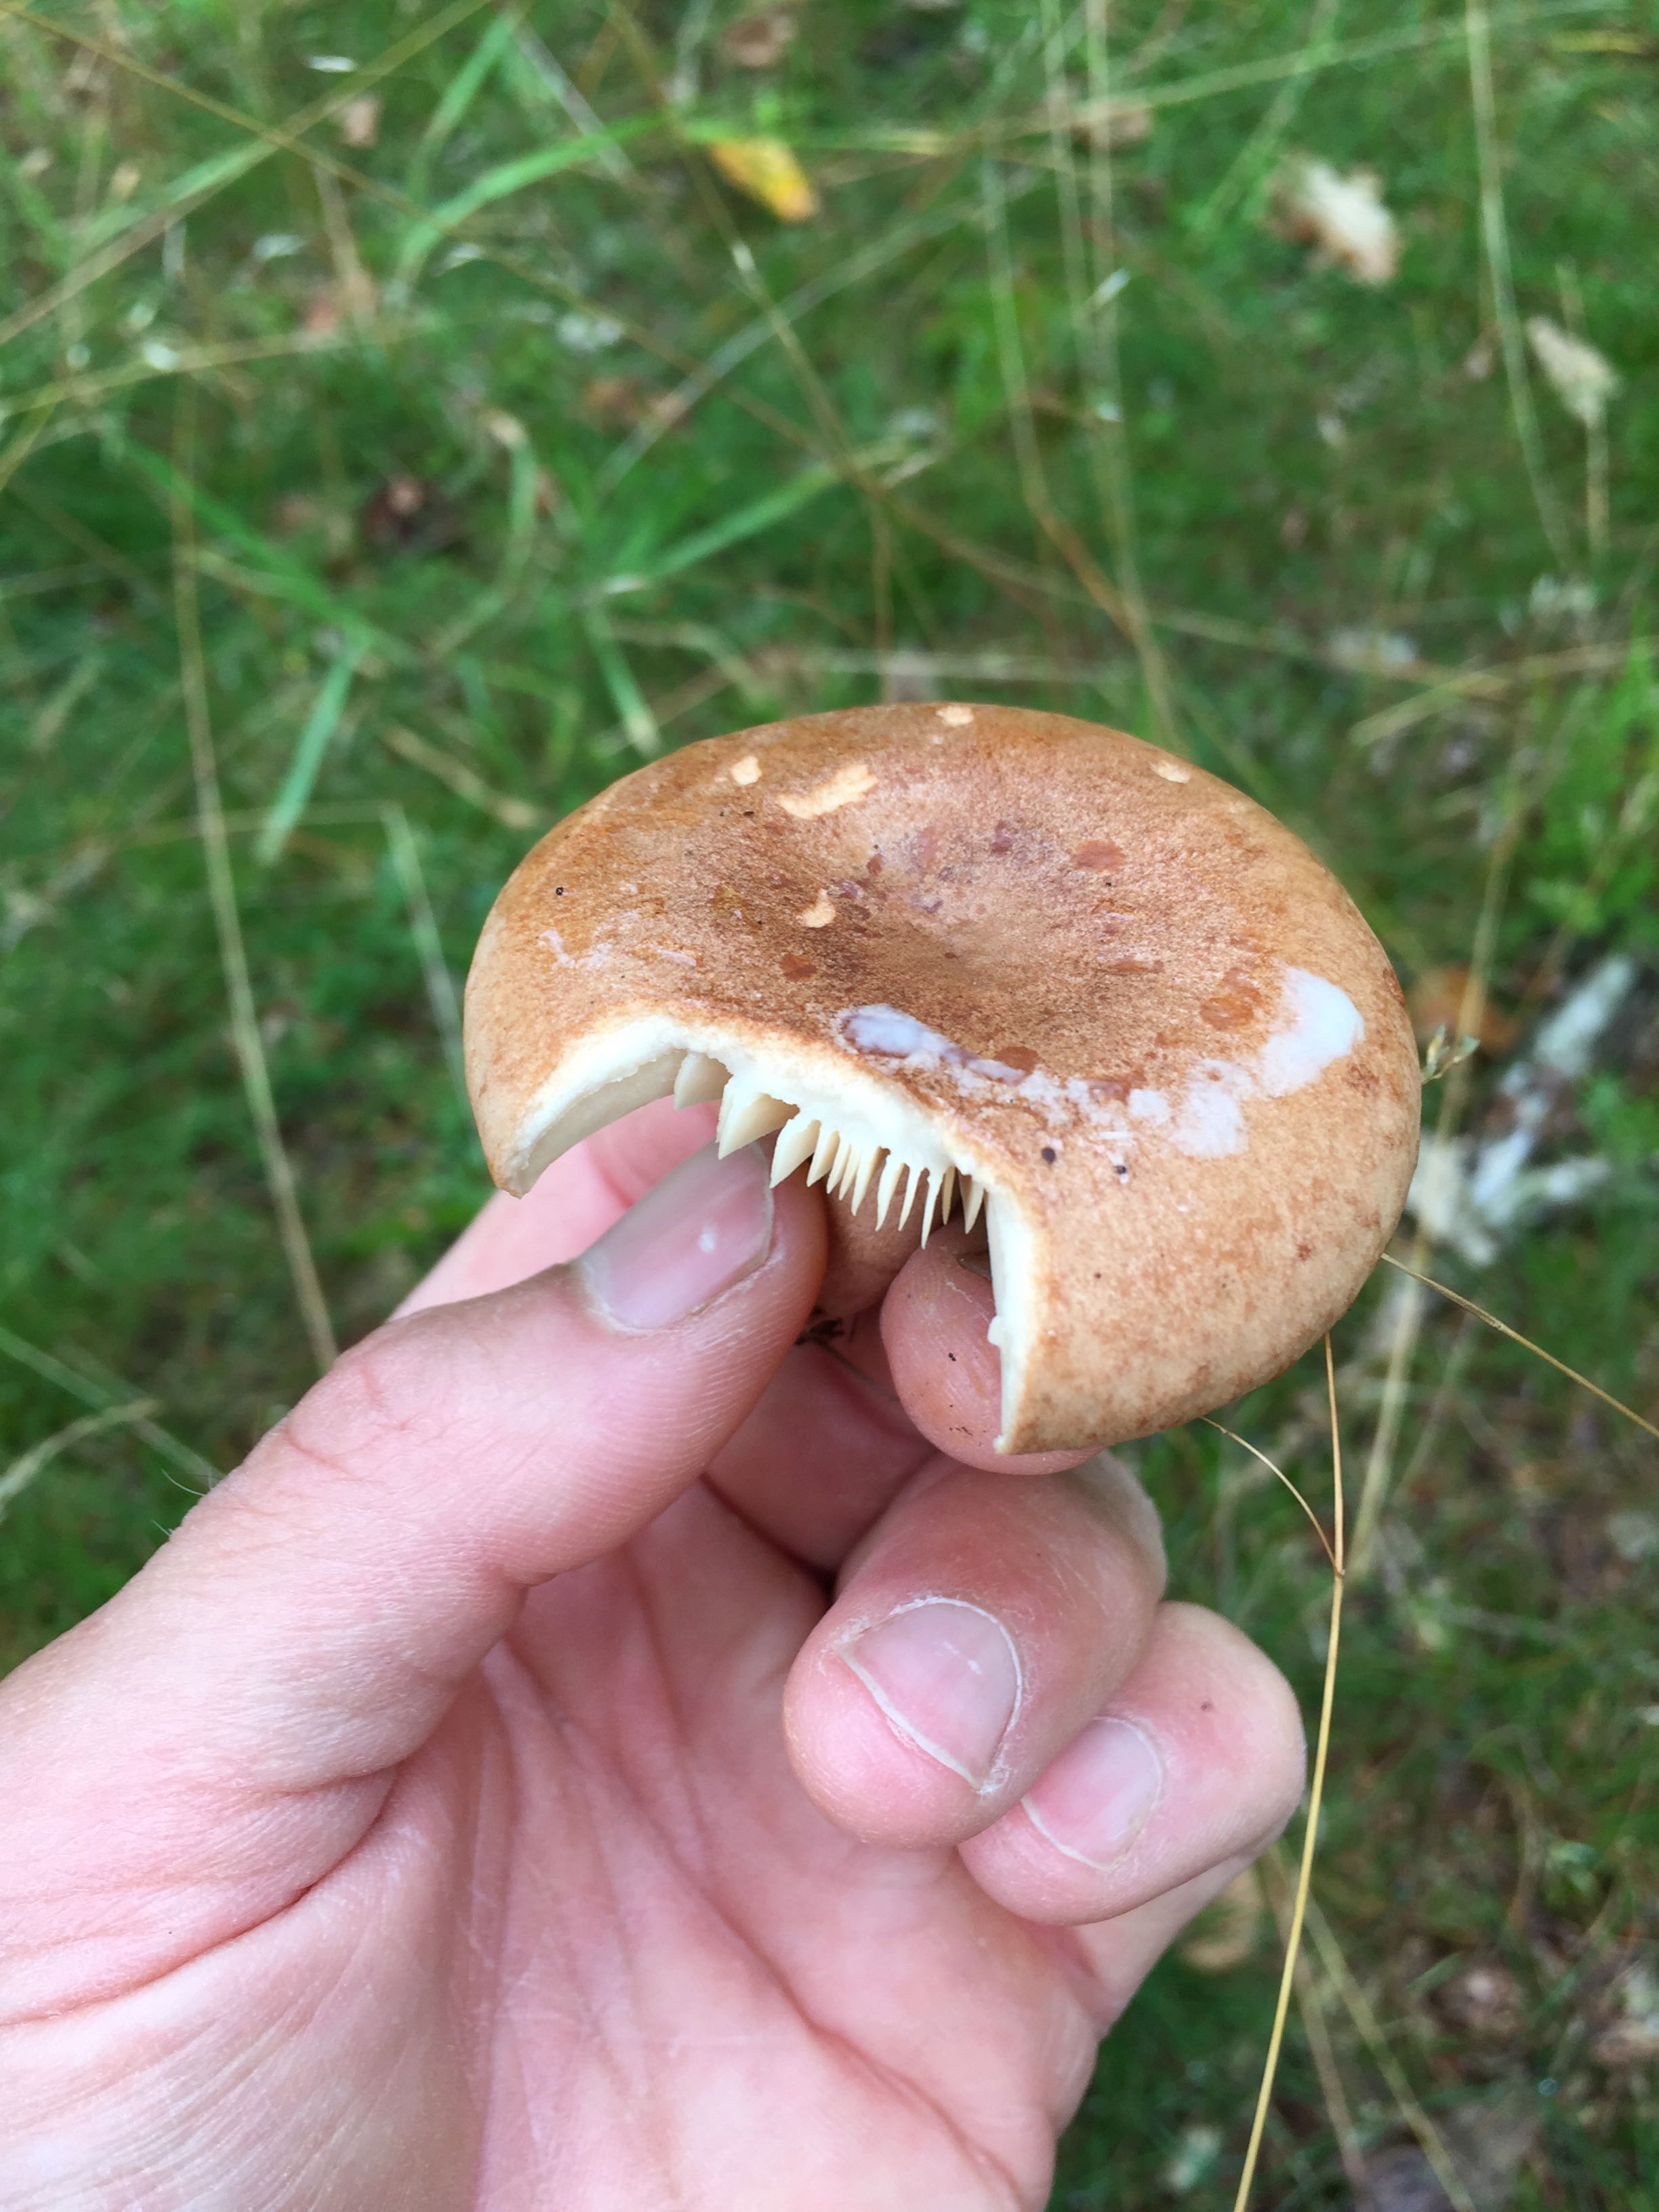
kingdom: Fungi
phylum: Basidiomycota
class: Agaricomycetes
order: Russulales
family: Russulaceae
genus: Lactarius
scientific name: Lactarius quietus
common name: ege-mælkehat
